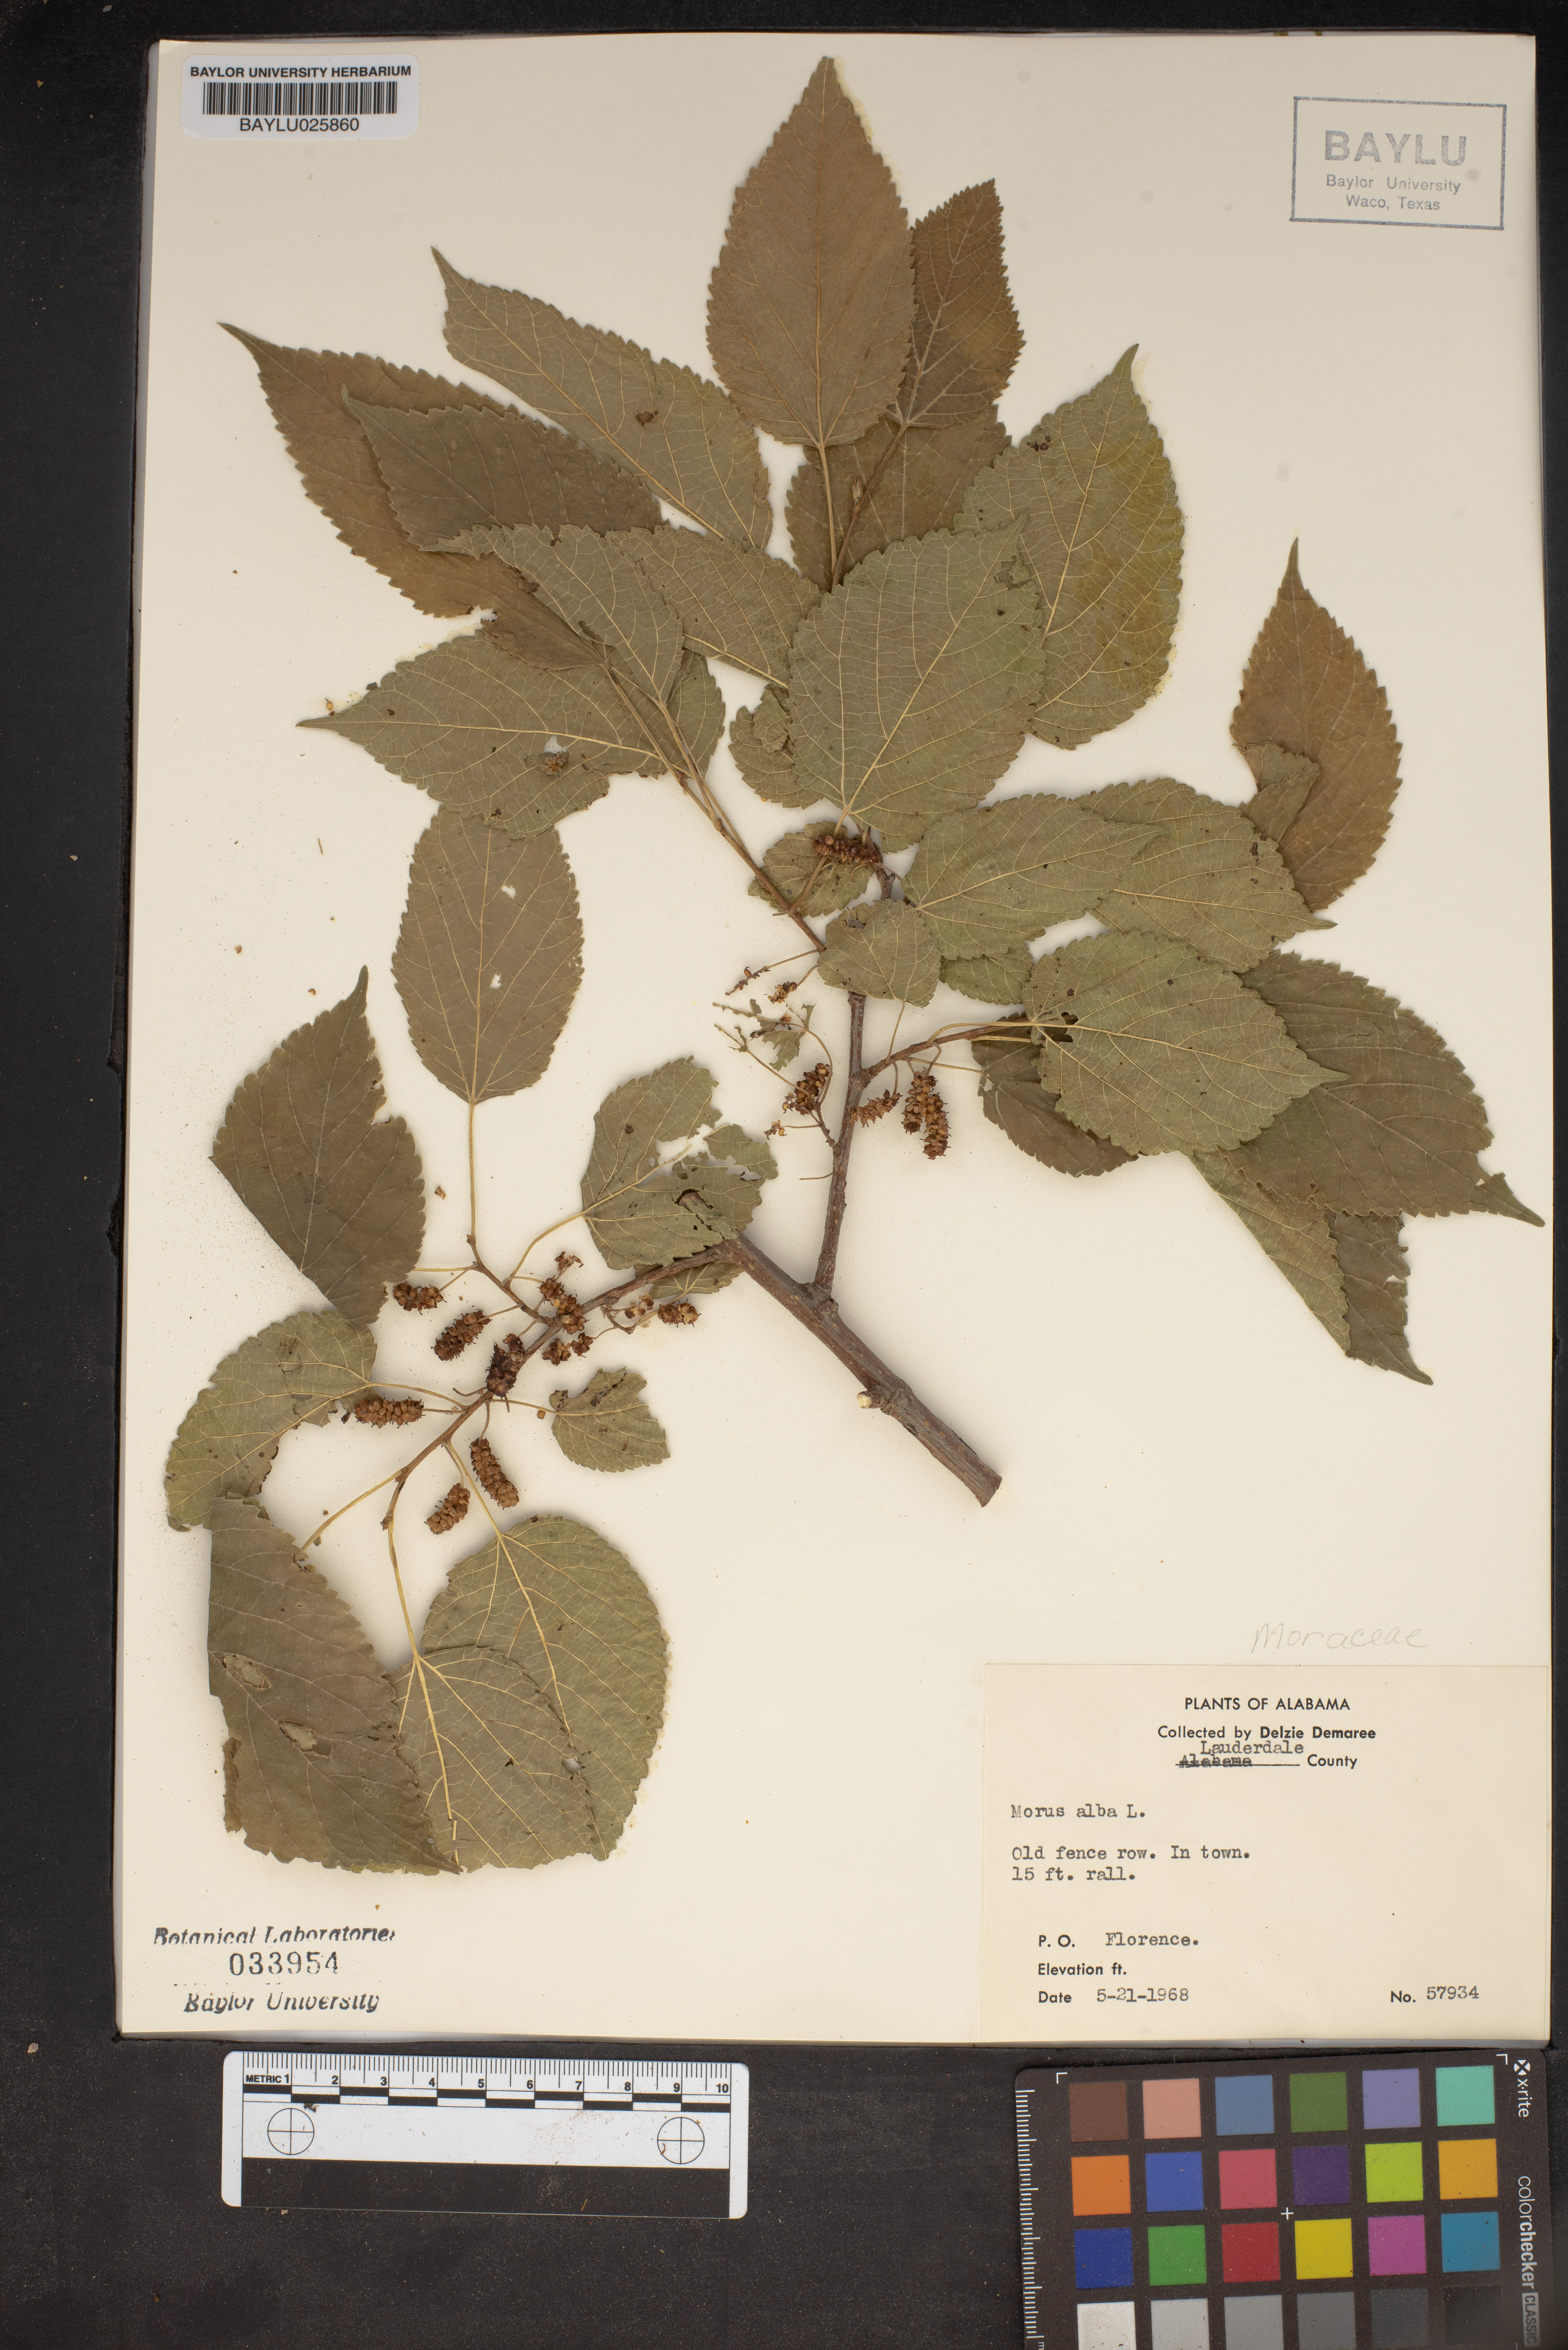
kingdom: Plantae
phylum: Tracheophyta
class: Magnoliopsida
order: Rosales
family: Moraceae
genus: Morus
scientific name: Morus alba
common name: White mulberry
